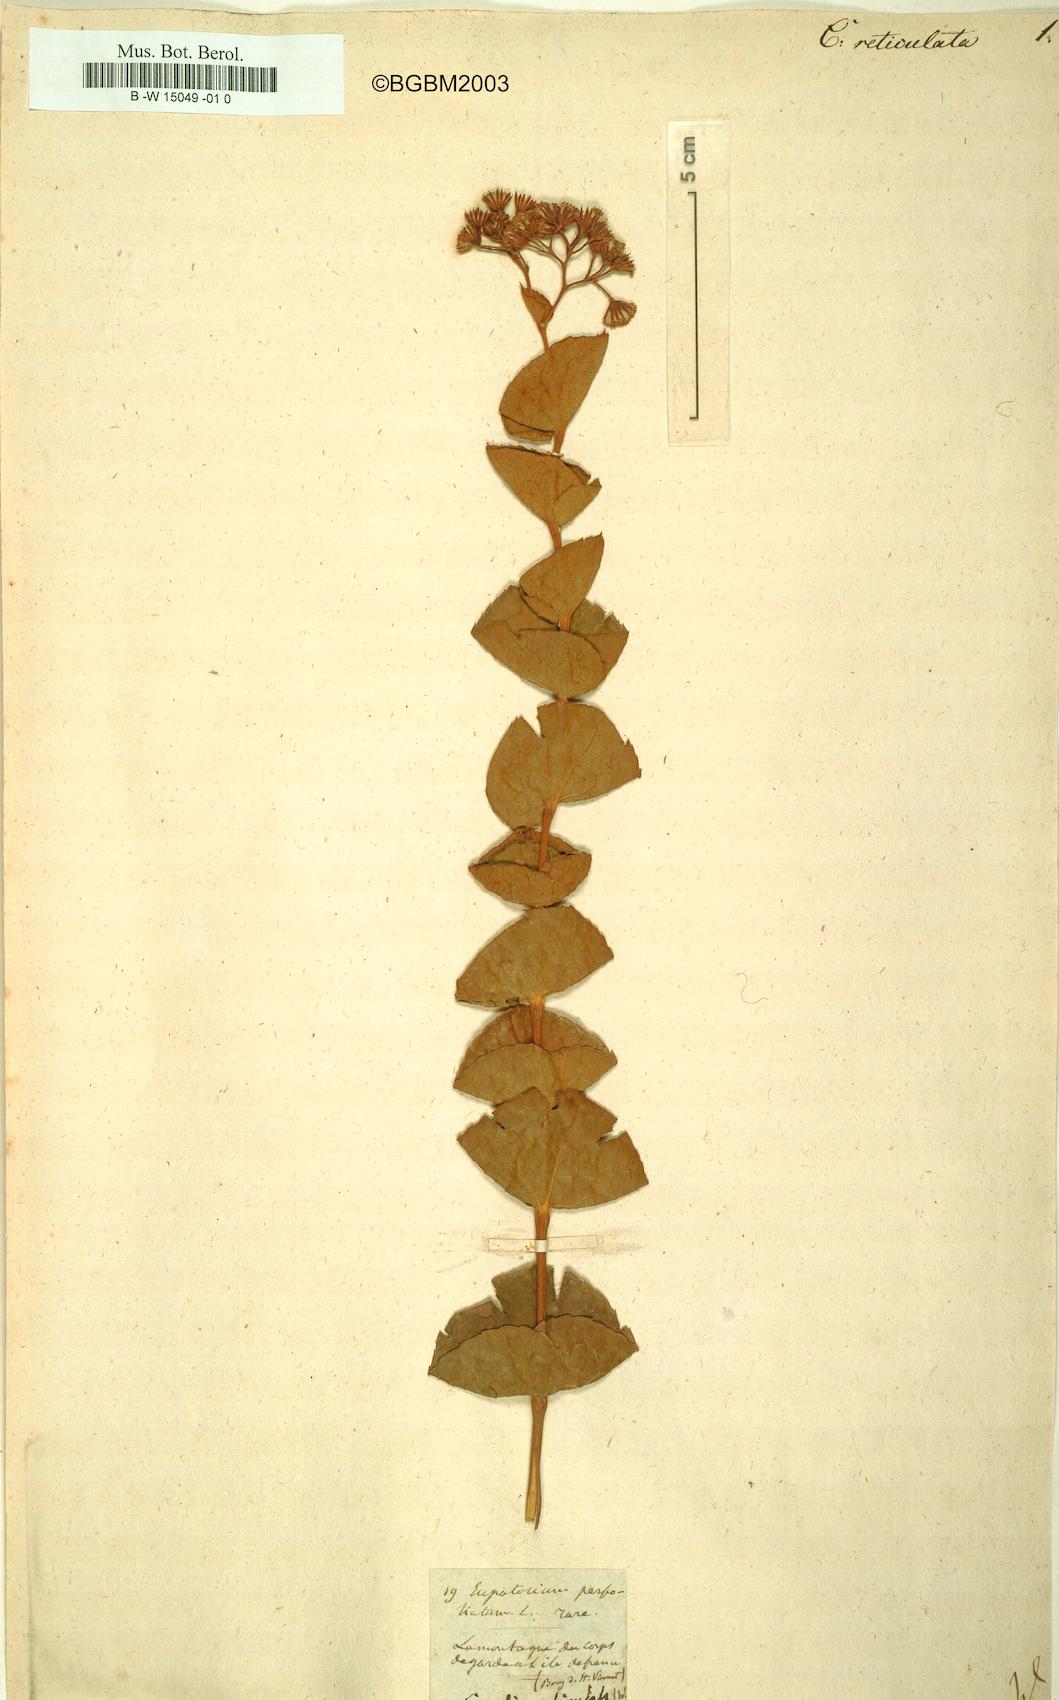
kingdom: Plantae
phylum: Tracheophyta
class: Magnoliopsida
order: Asterales
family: Asteraceae
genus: Adenostyles
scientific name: Adenostyles Cacalia reticulata
